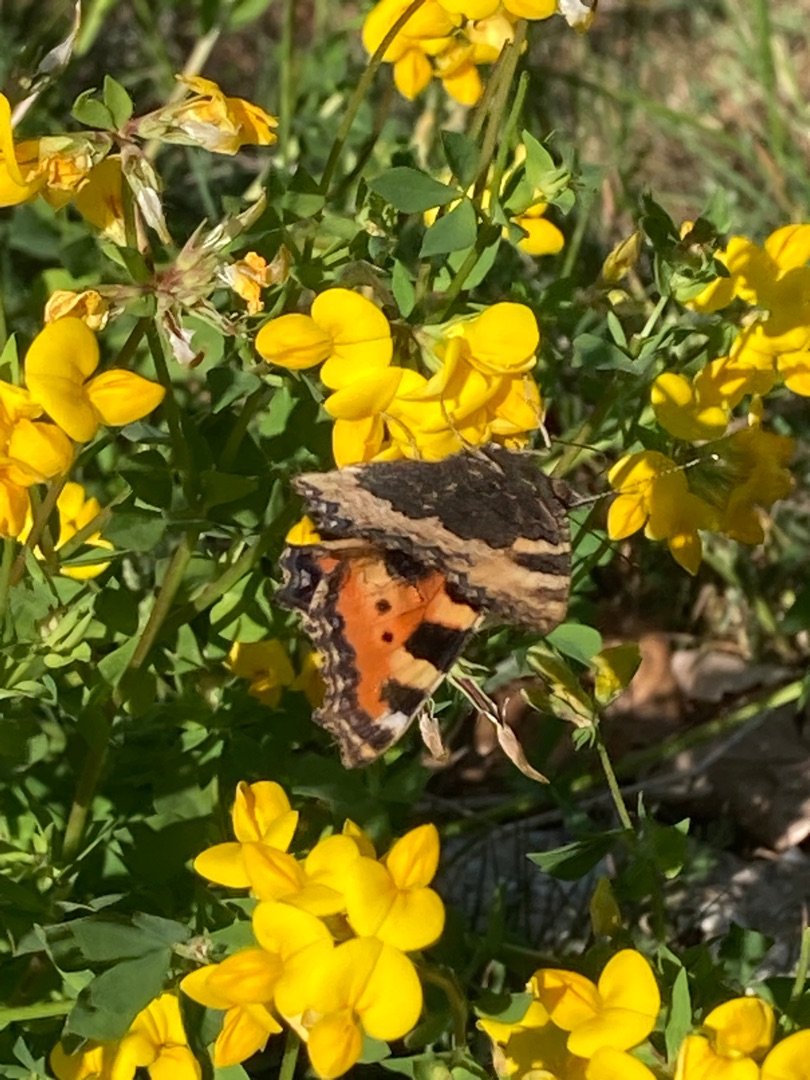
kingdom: Animalia
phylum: Arthropoda
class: Insecta
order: Lepidoptera
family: Nymphalidae
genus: Aglais
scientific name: Aglais urticae
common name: Nældens takvinge
